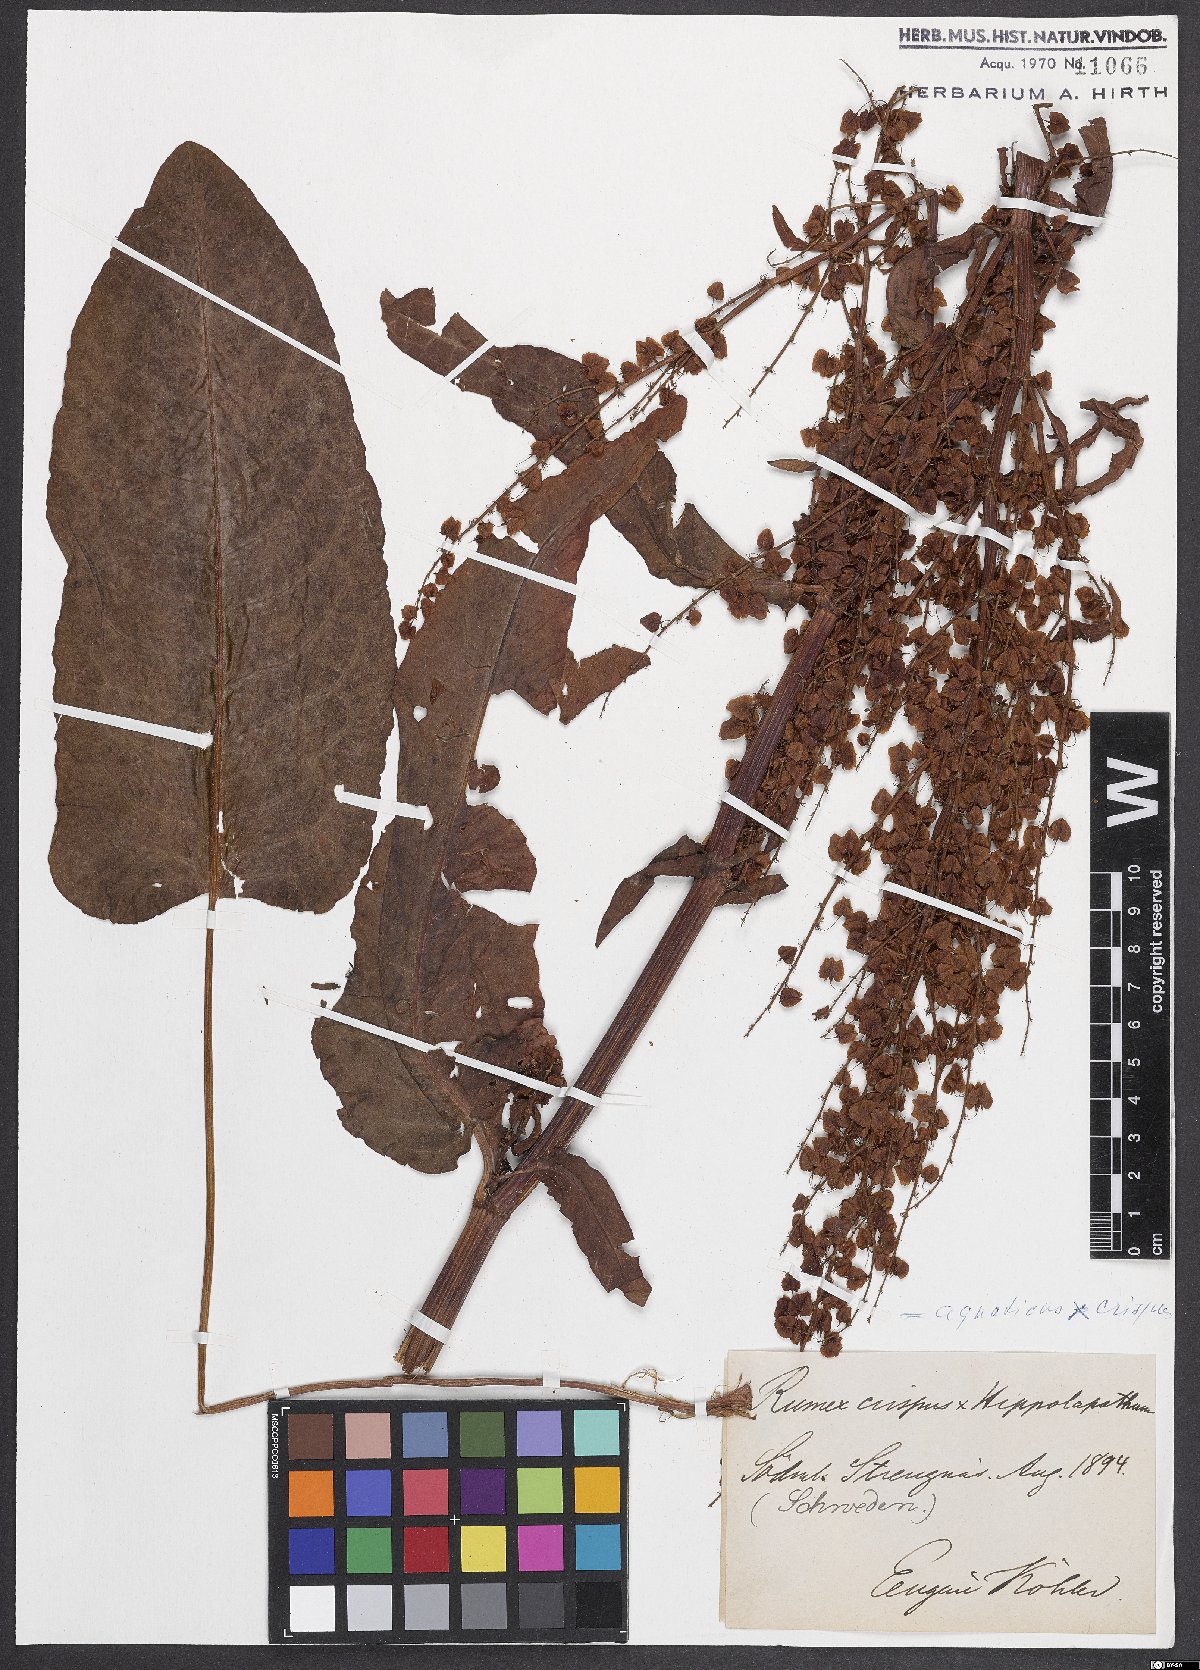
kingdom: Plantae
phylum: Tracheophyta
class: Magnoliopsida
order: Caryophyllales
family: Polygonaceae
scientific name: Polygonaceae
